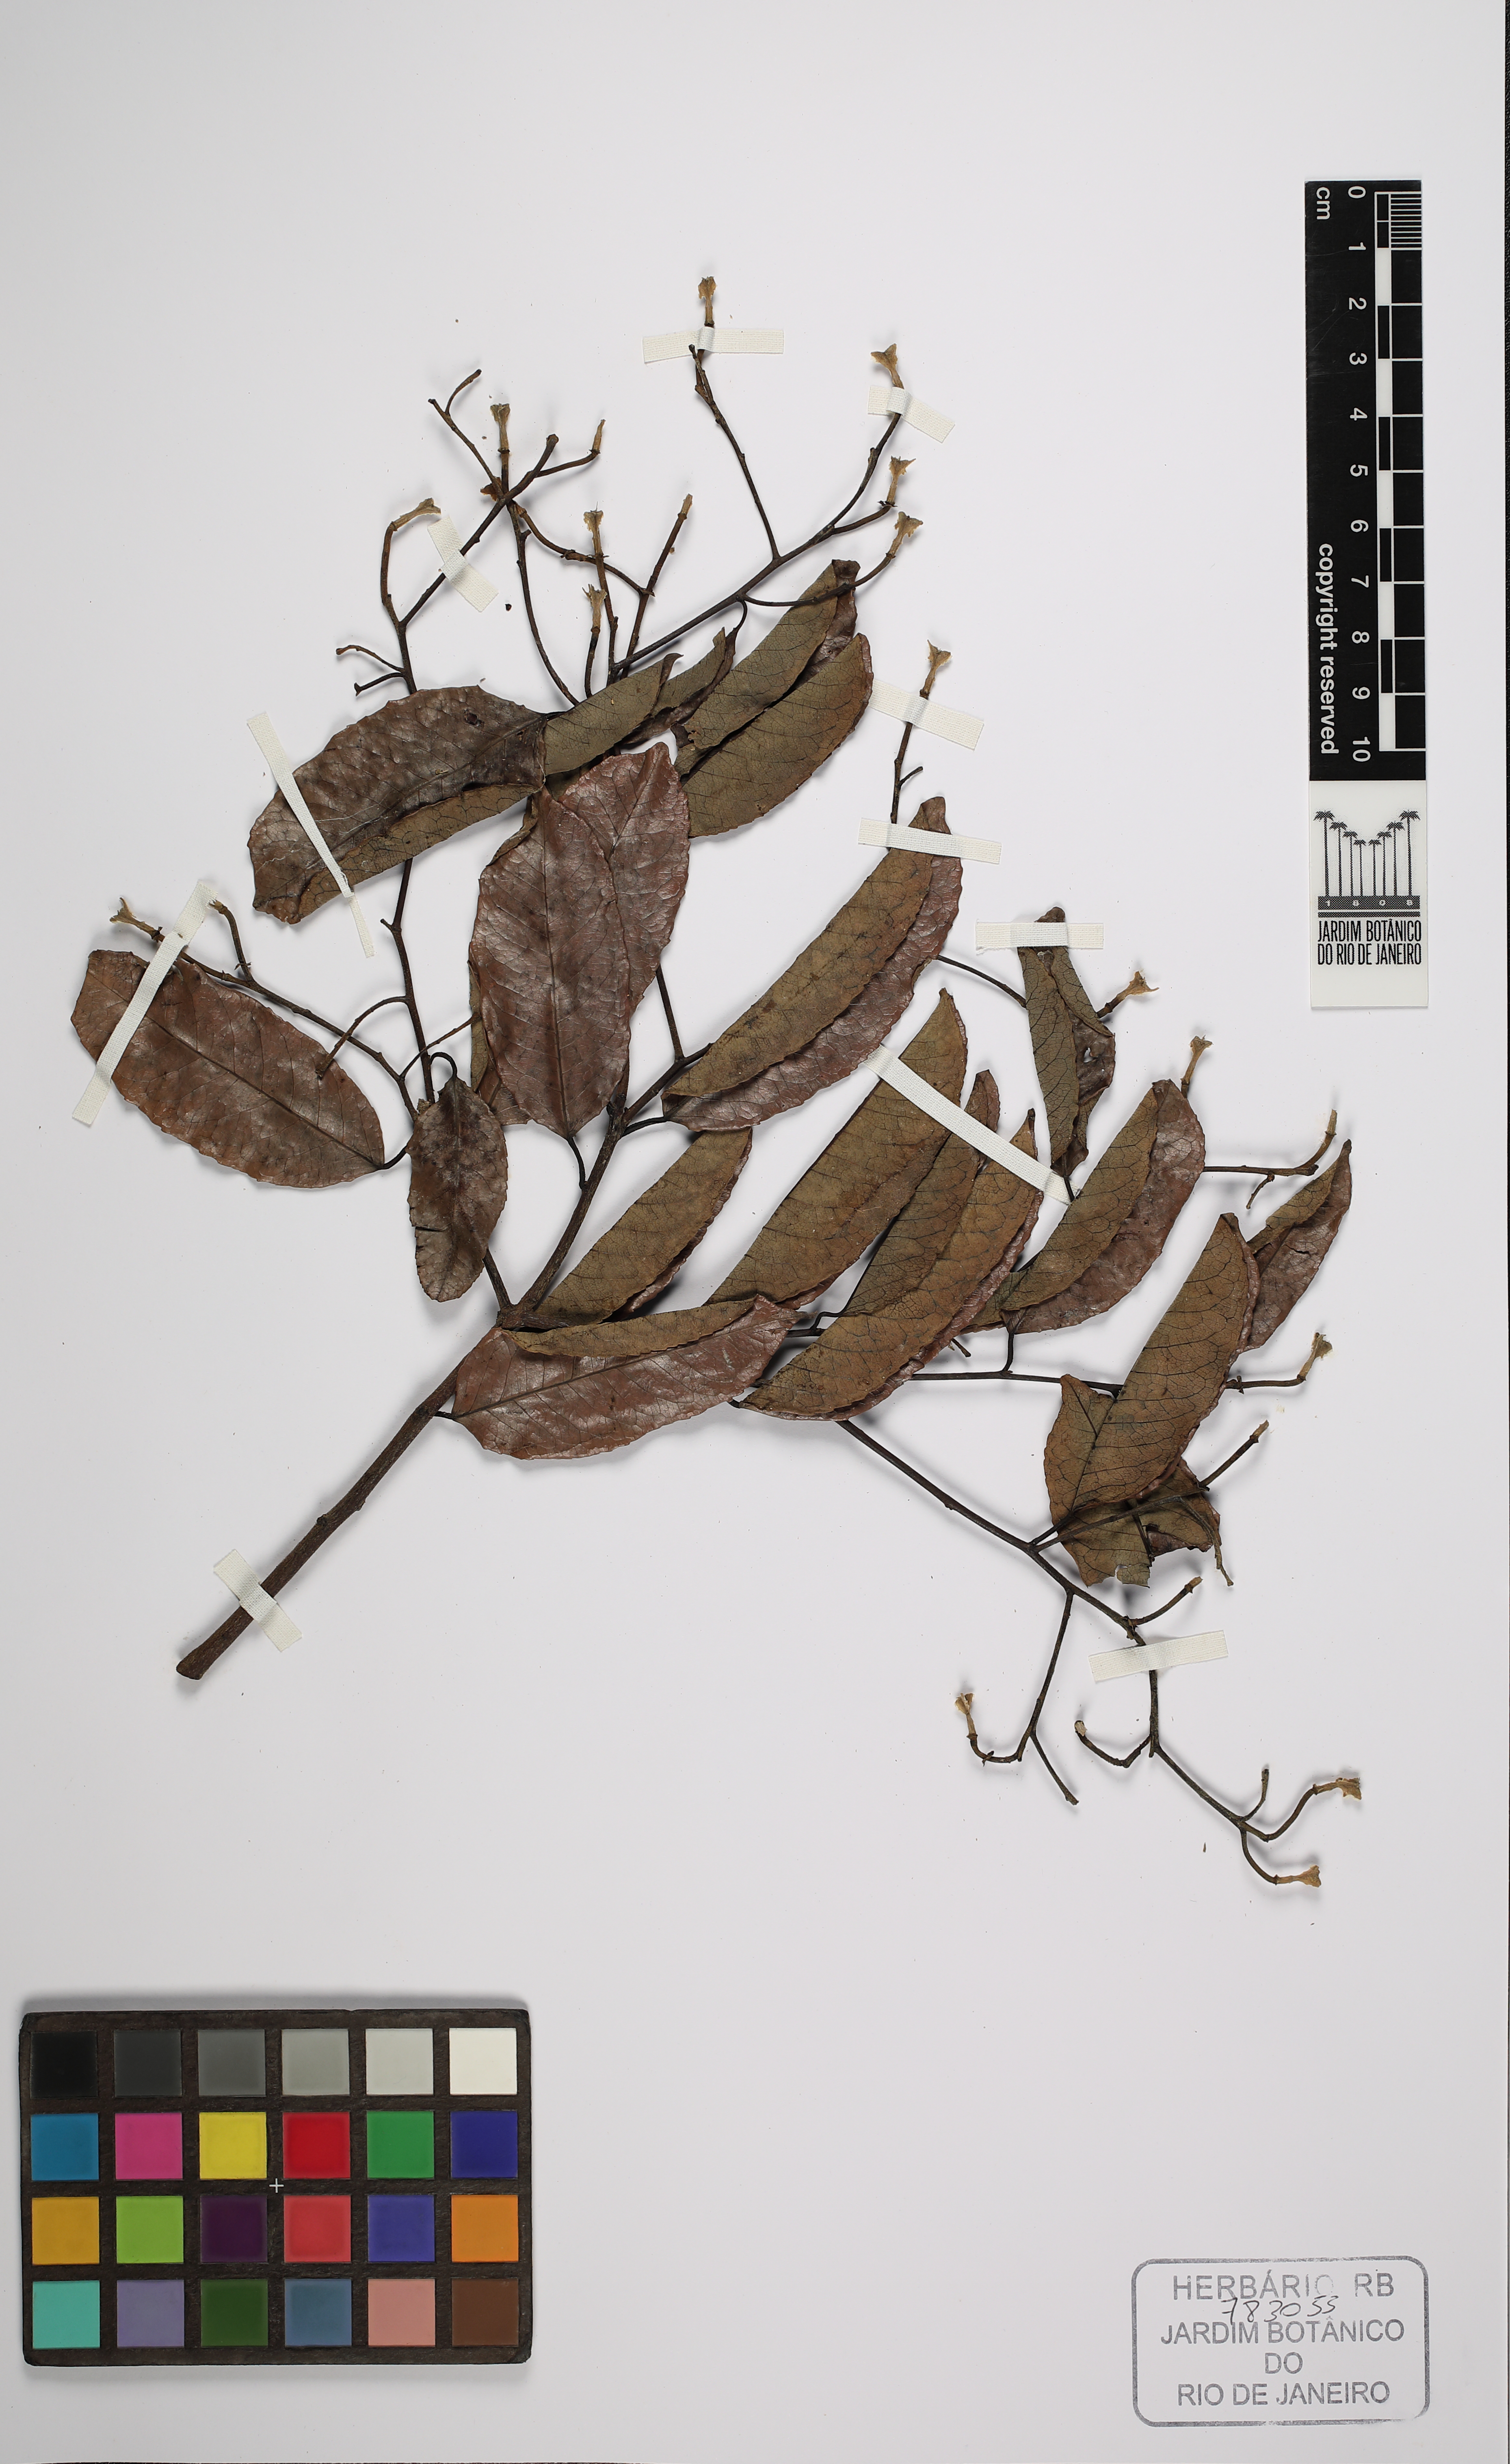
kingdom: Plantae
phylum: Tracheophyta
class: Magnoliopsida
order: Malpighiales
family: Euphorbiaceae
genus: Mabea
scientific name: Mabea nitida
